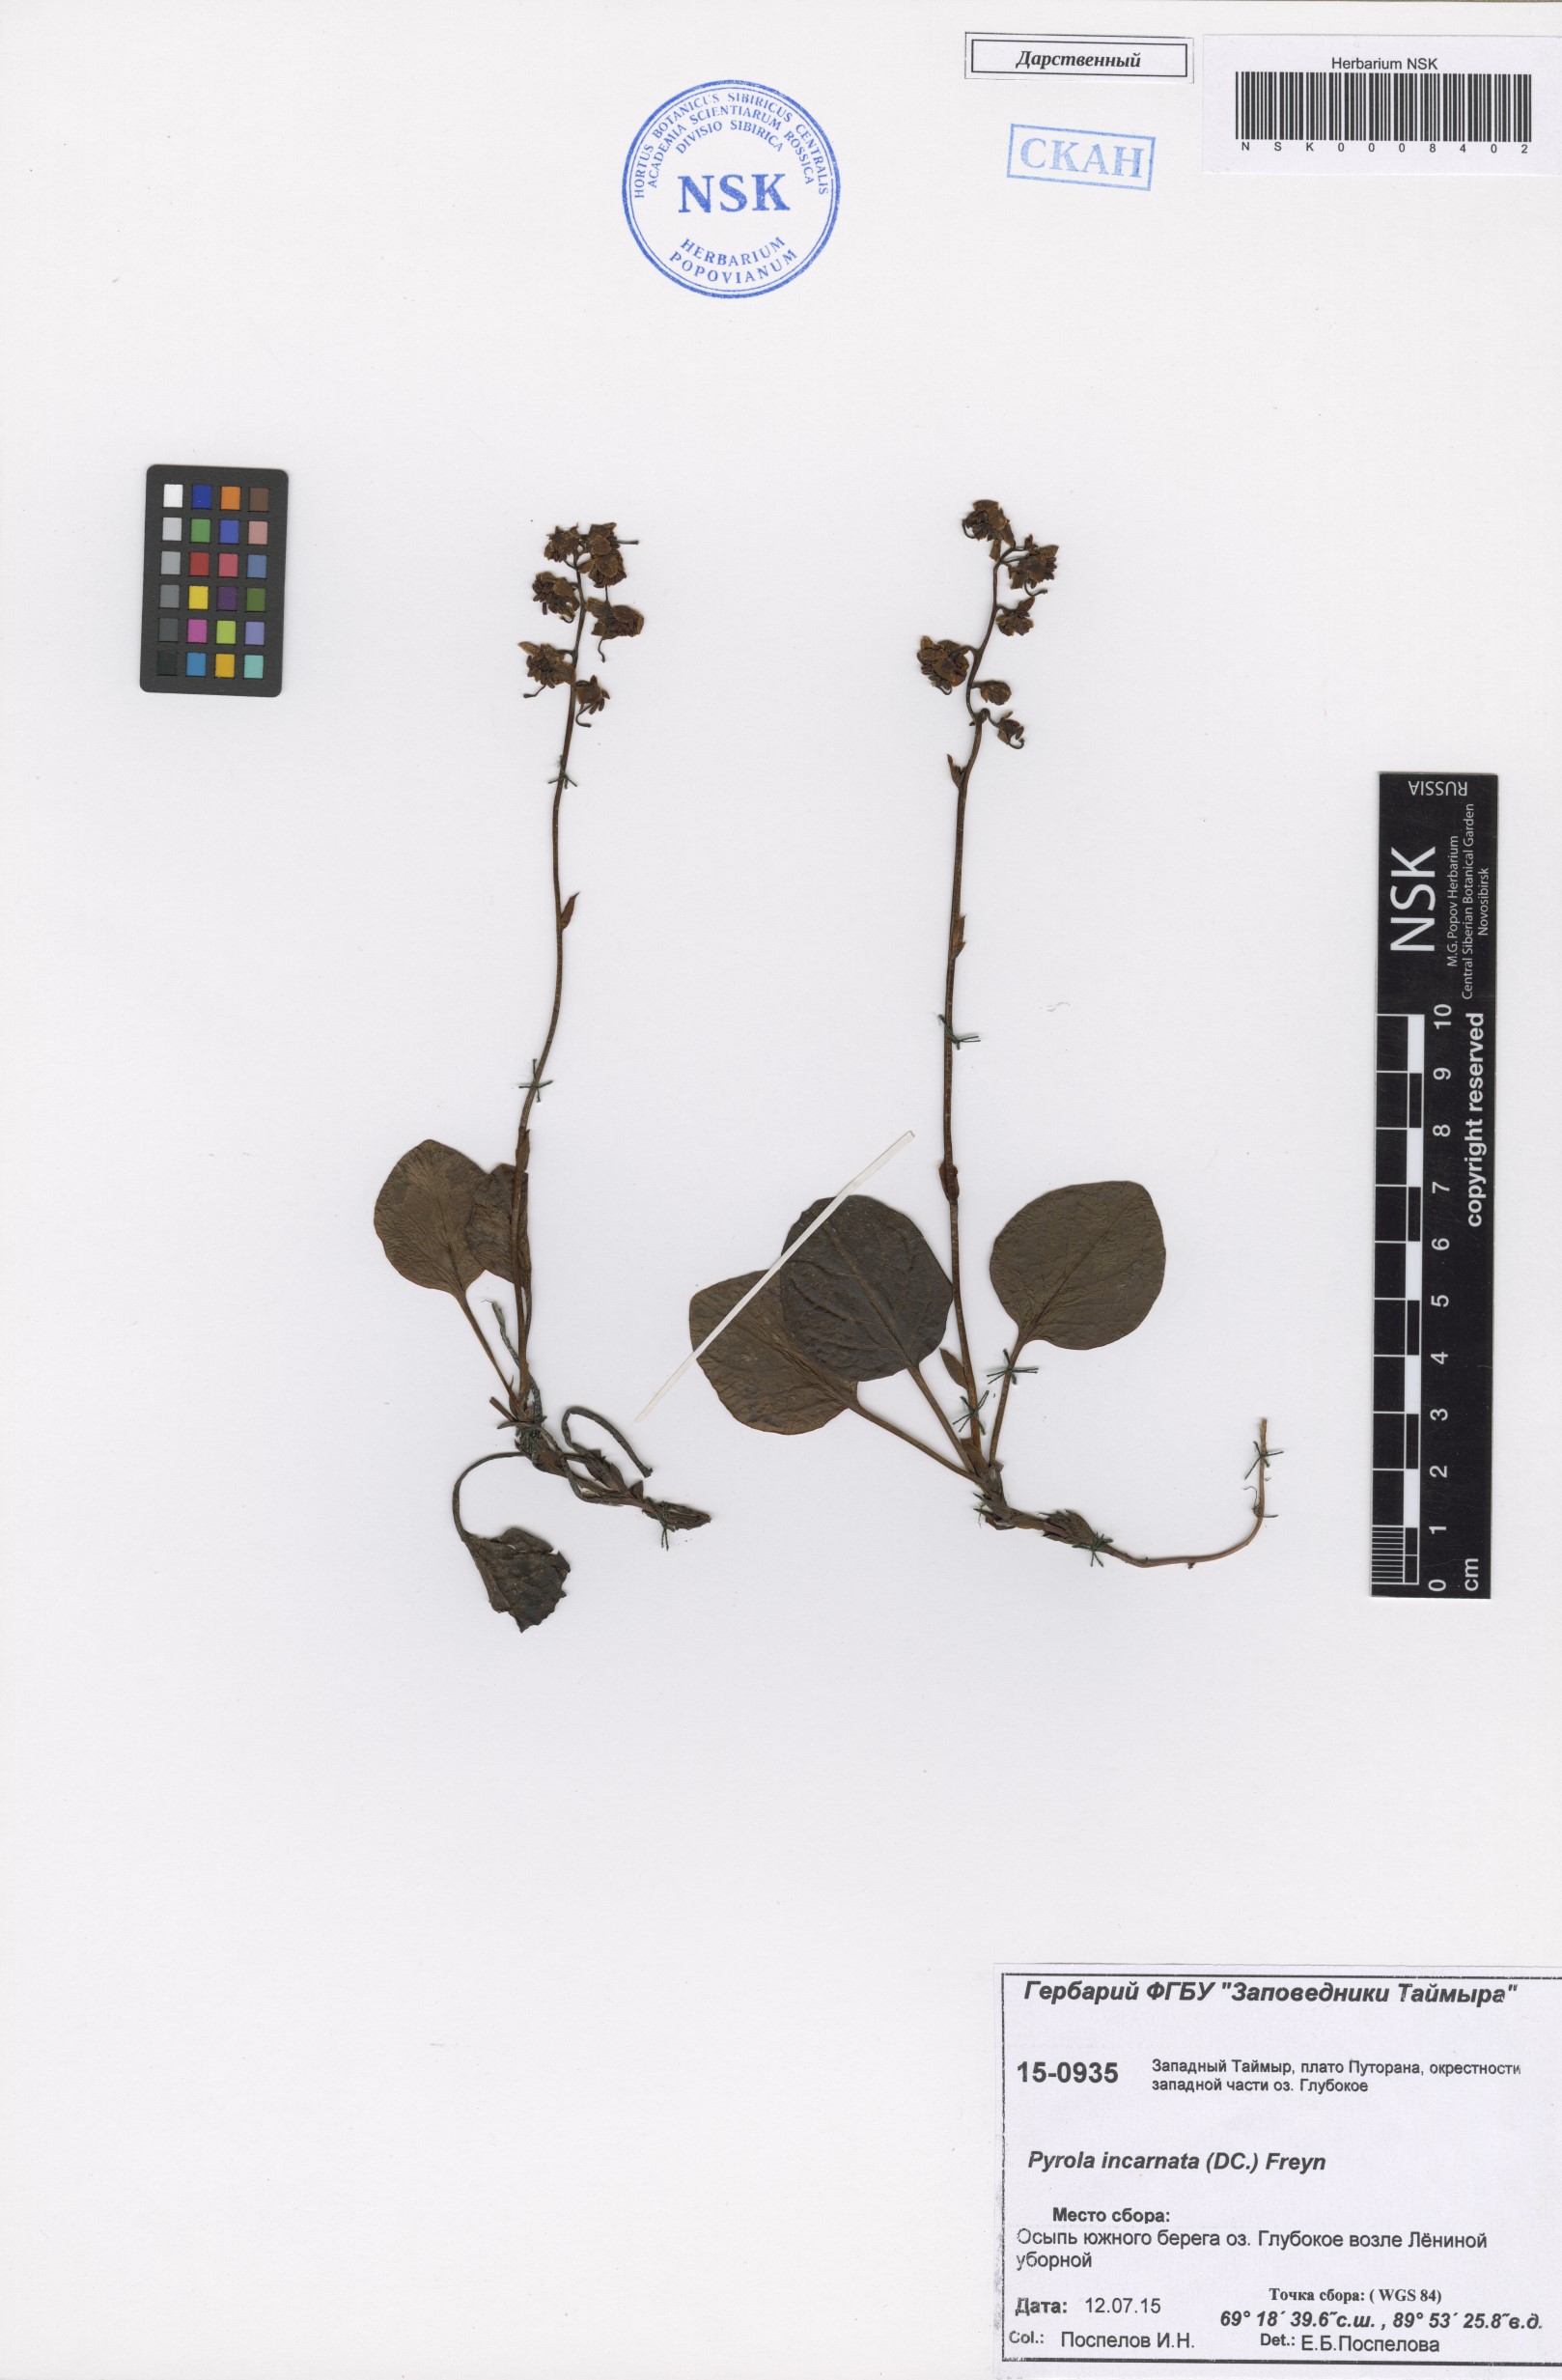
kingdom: Plantae
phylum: Tracheophyta
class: Magnoliopsida
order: Ericales
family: Ericaceae
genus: Pyrola
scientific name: Pyrola asarifolia
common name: Bog wintergreen
